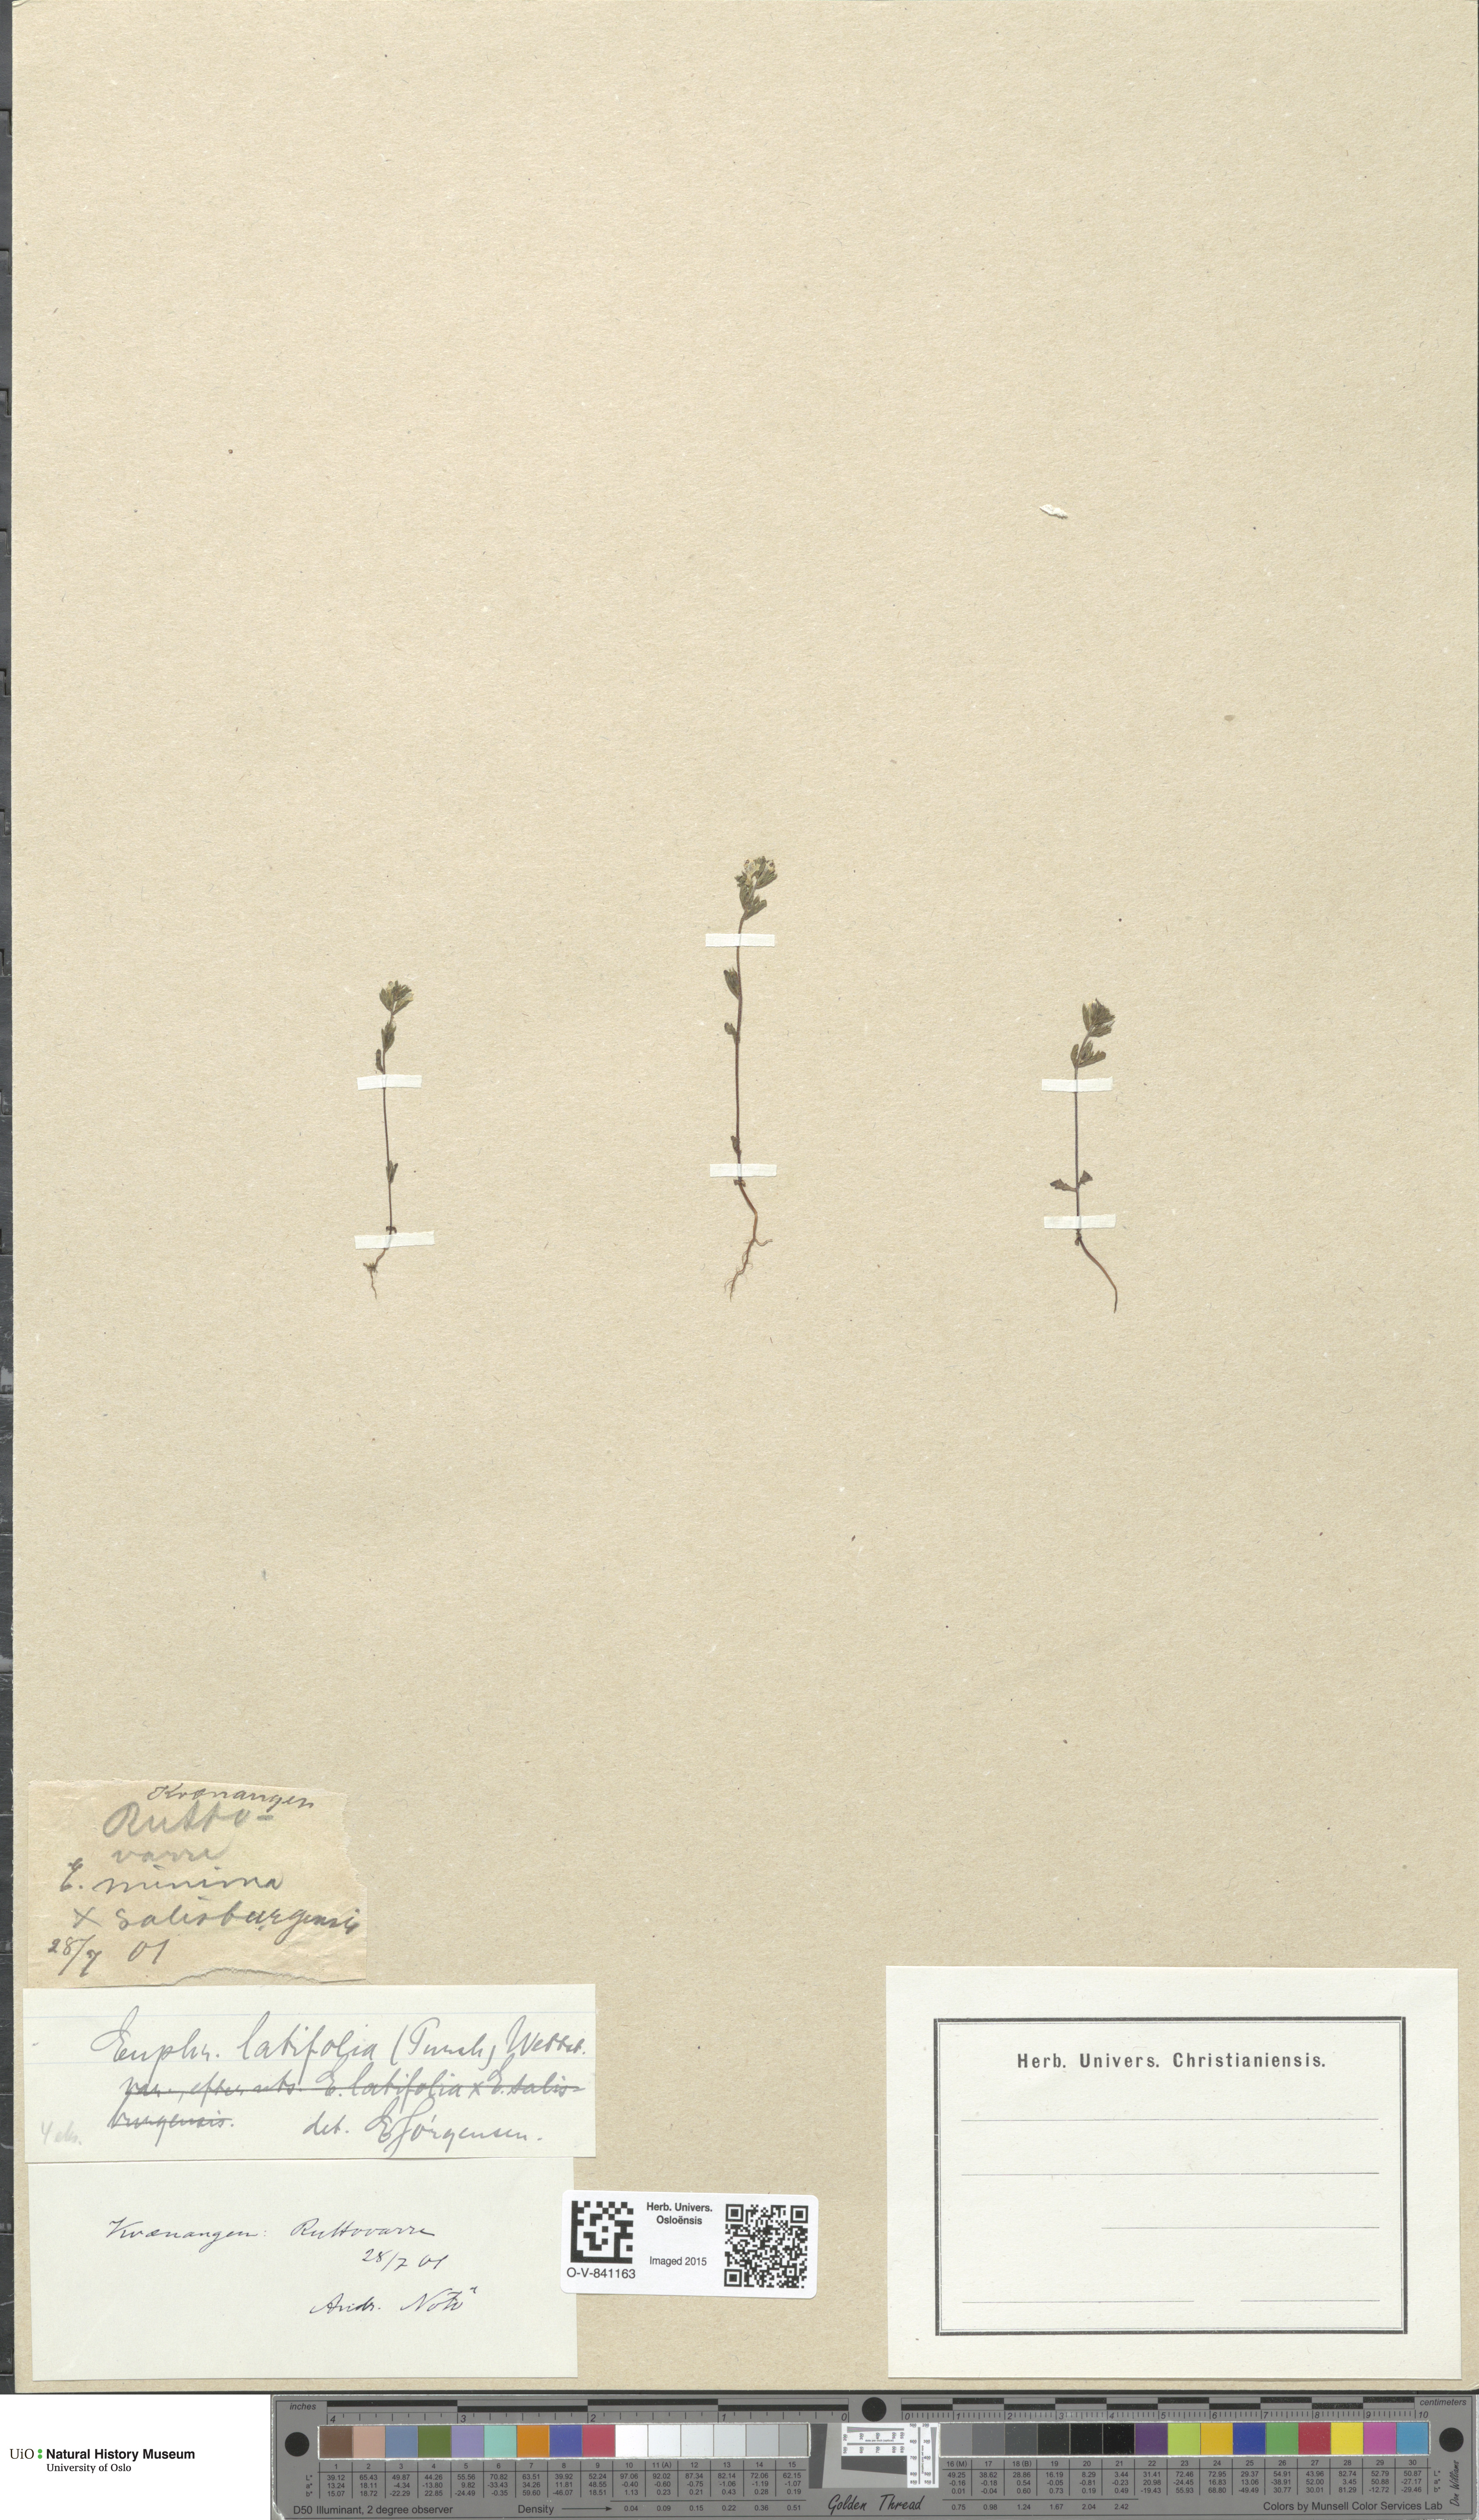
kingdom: Plantae
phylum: Tracheophyta
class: Magnoliopsida
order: Lamiales
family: Orobanchaceae
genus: Euphrasia
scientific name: Euphrasia wettsteinii
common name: Wettstein's eyebright
